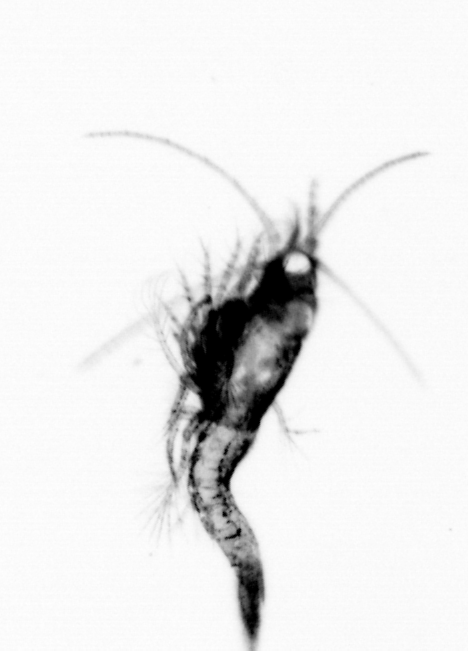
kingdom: Animalia
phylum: Arthropoda
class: Copepoda
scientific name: Copepoda
